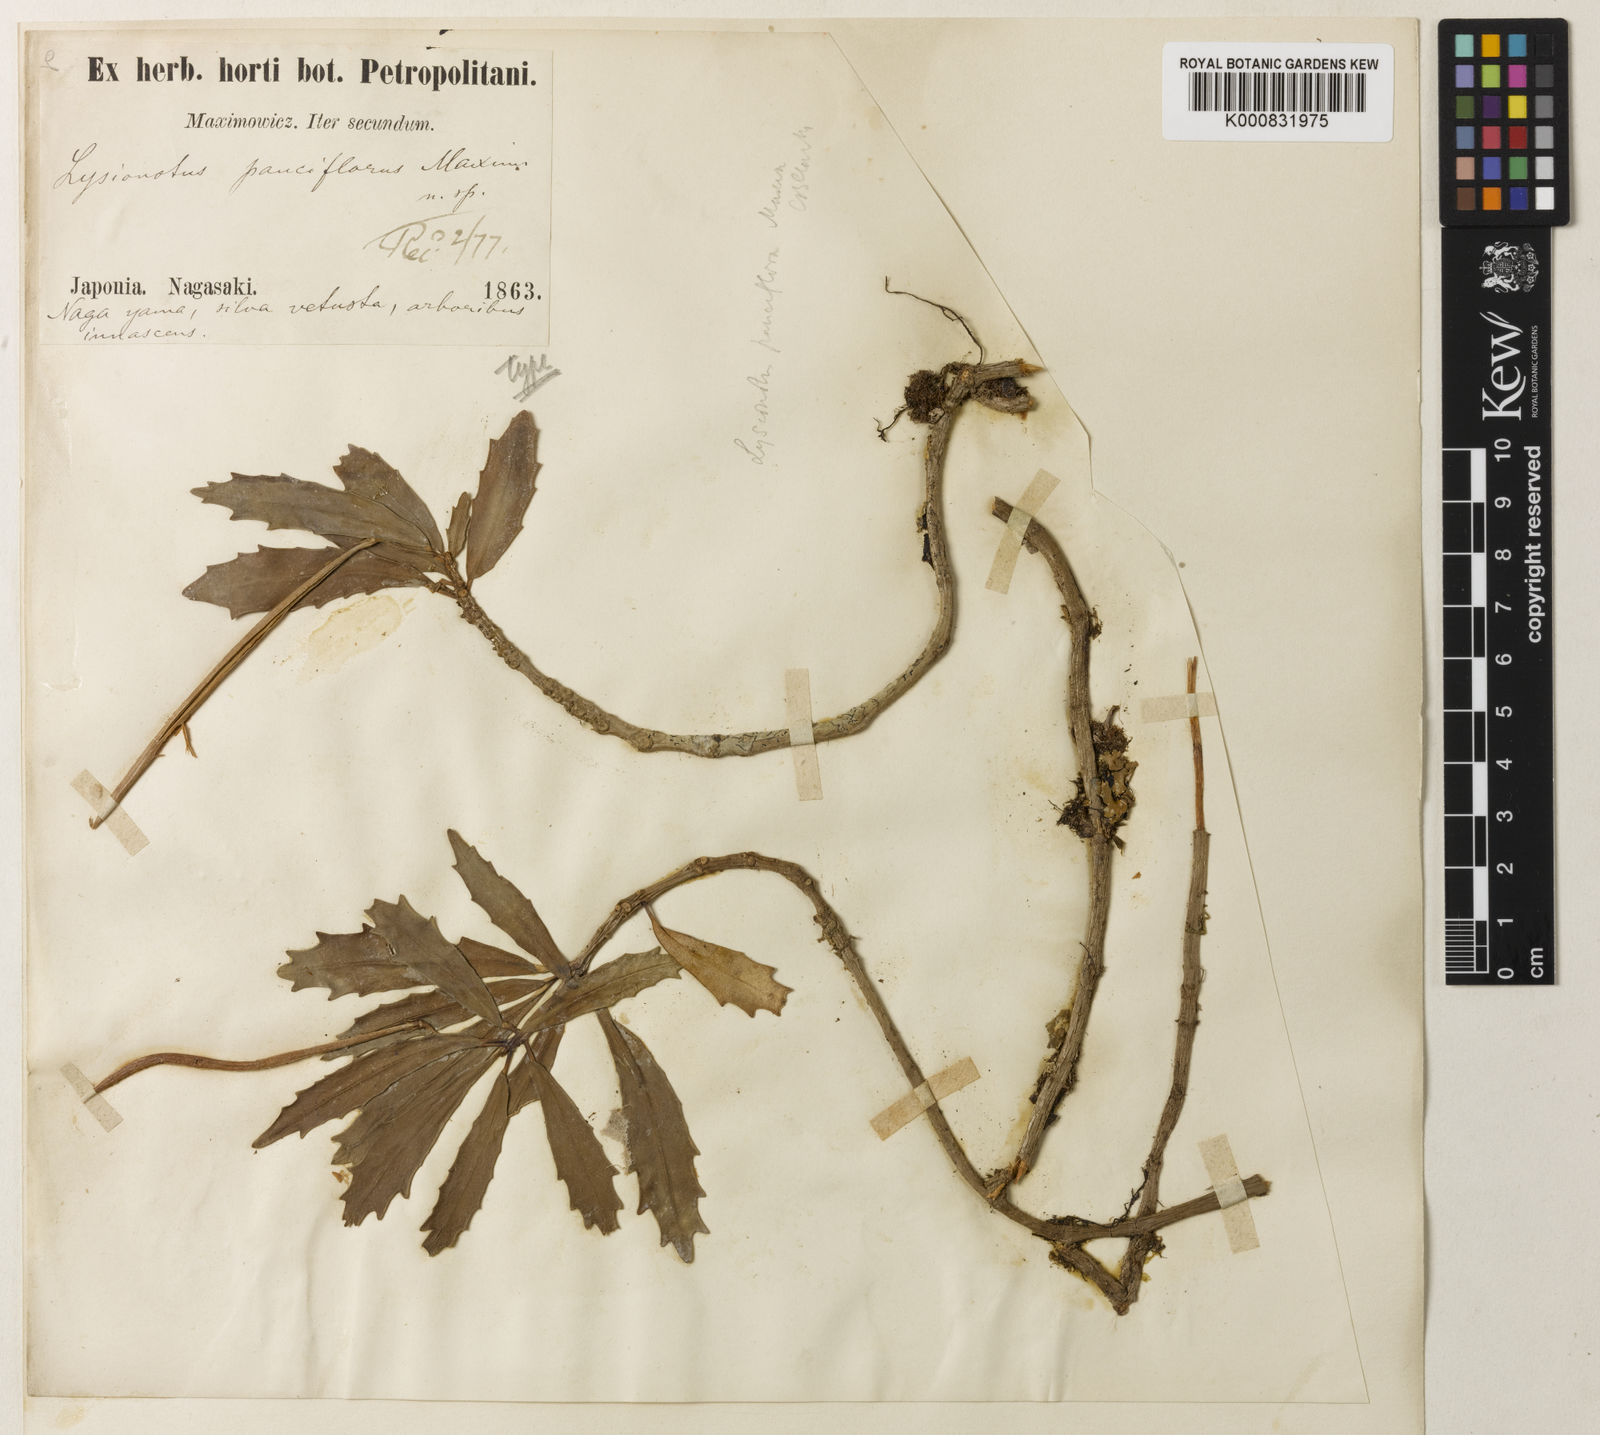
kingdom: Plantae
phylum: Tracheophyta
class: Magnoliopsida
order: Lamiales
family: Gesneriaceae
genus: Lysionotus
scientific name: Lysionotus pauciflorus
